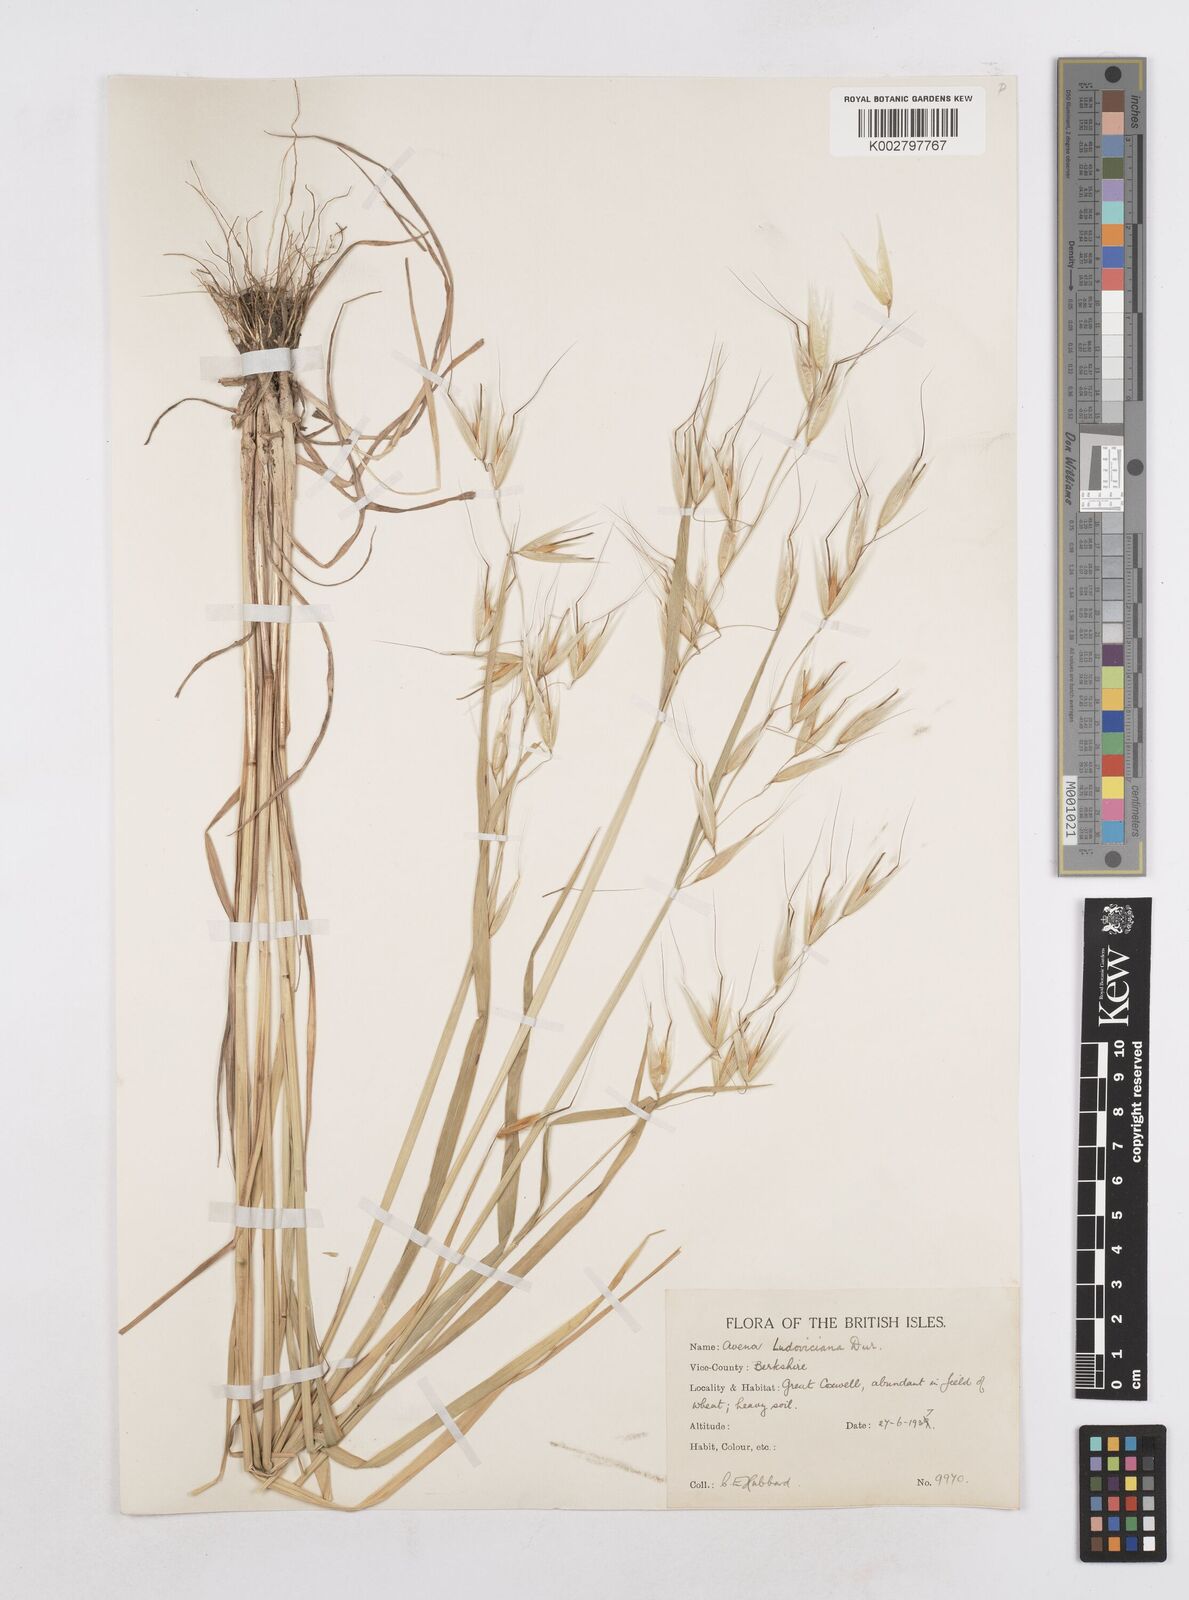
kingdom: Plantae
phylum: Tracheophyta
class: Liliopsida
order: Poales
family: Poaceae
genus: Avena
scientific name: Avena sterilis
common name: Animated oat
